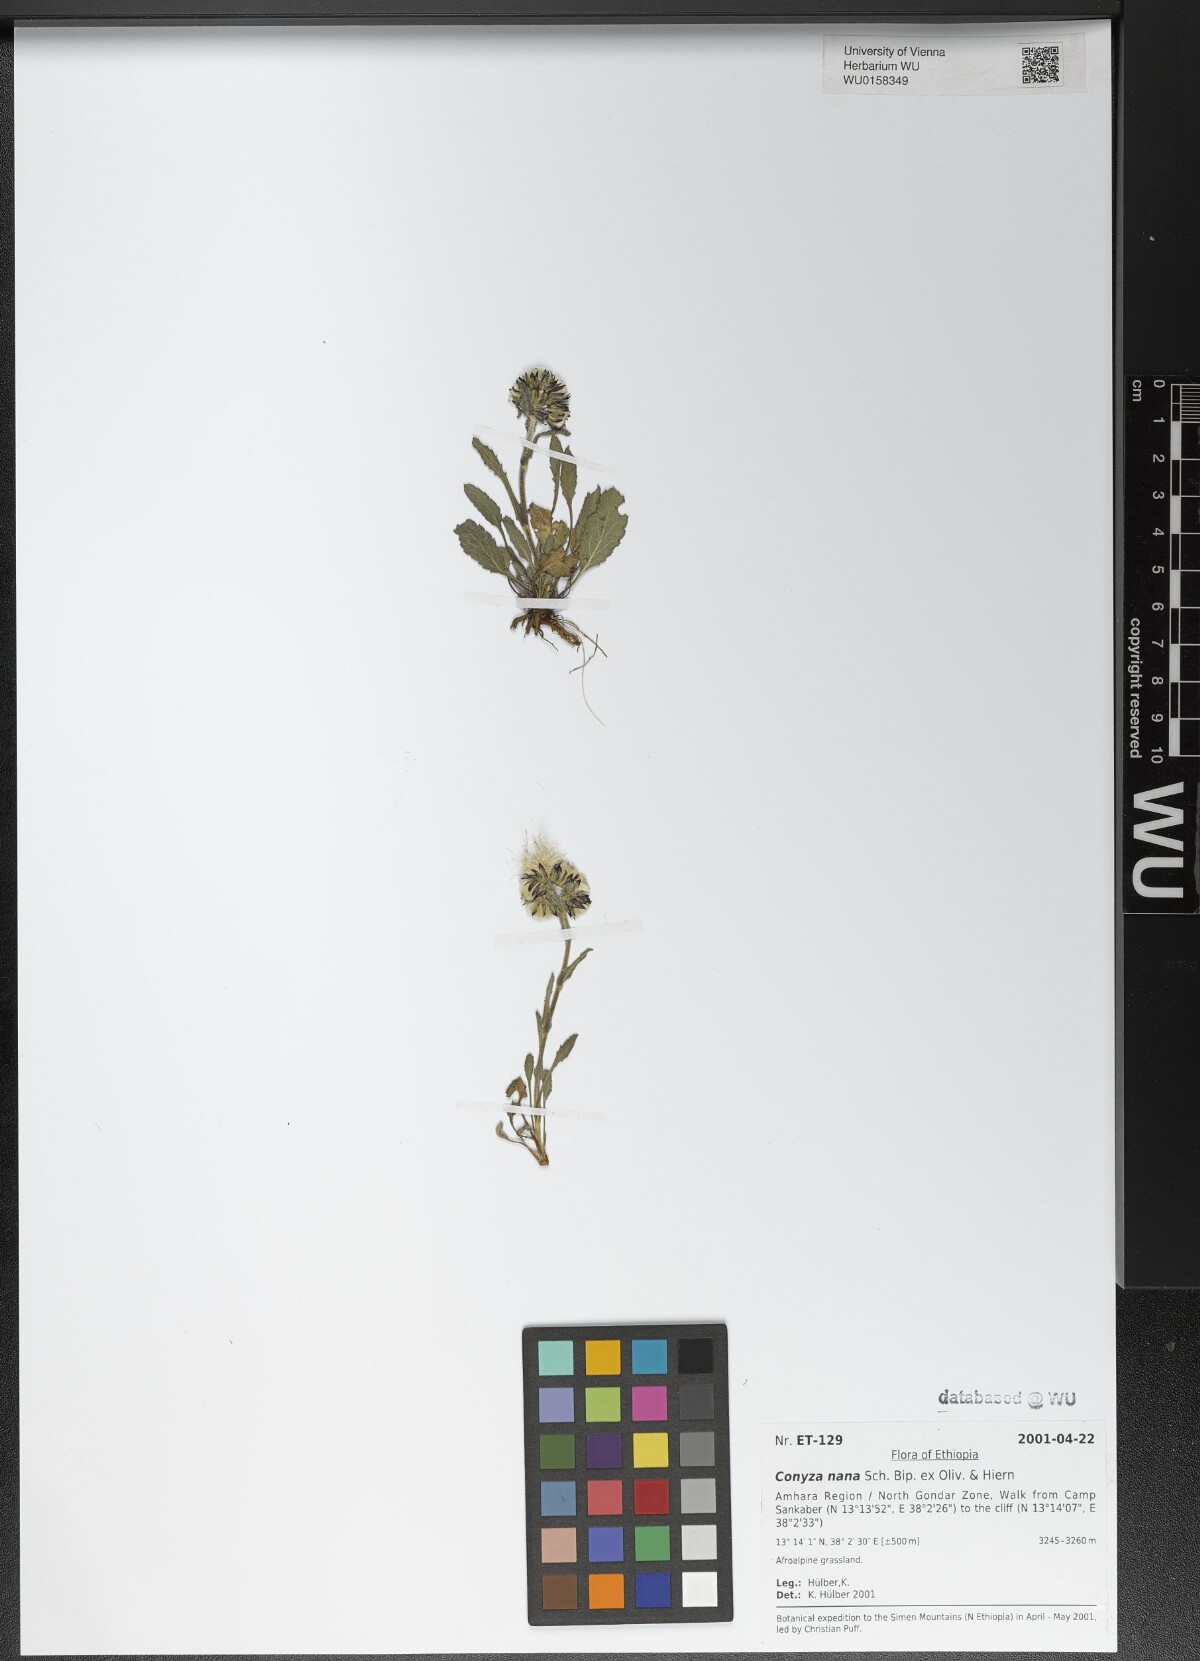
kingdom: Plantae
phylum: Tracheophyta
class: Magnoliopsida
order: Asterales
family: Asteraceae
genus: Conyza
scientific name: Conyza nana
